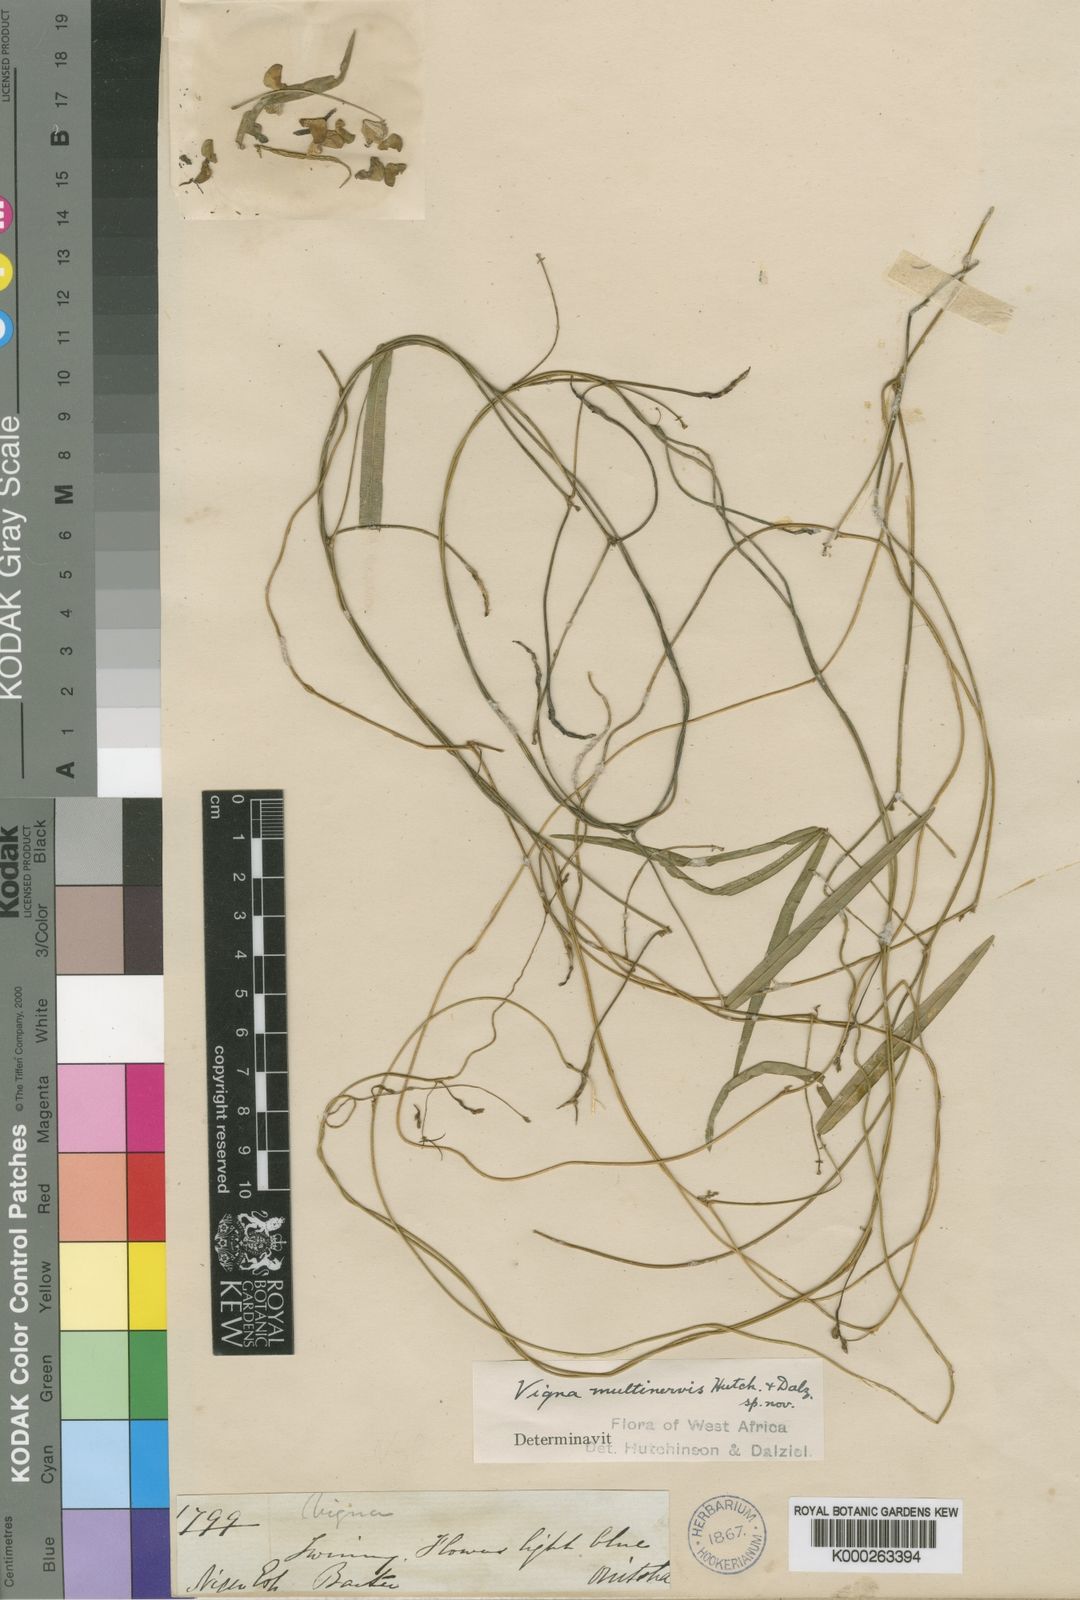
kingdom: Plantae
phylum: Tracheophyta
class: Magnoliopsida
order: Fabales
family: Fabaceae
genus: Vigna
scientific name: Vigna multinervis
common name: Fula-pulaar
